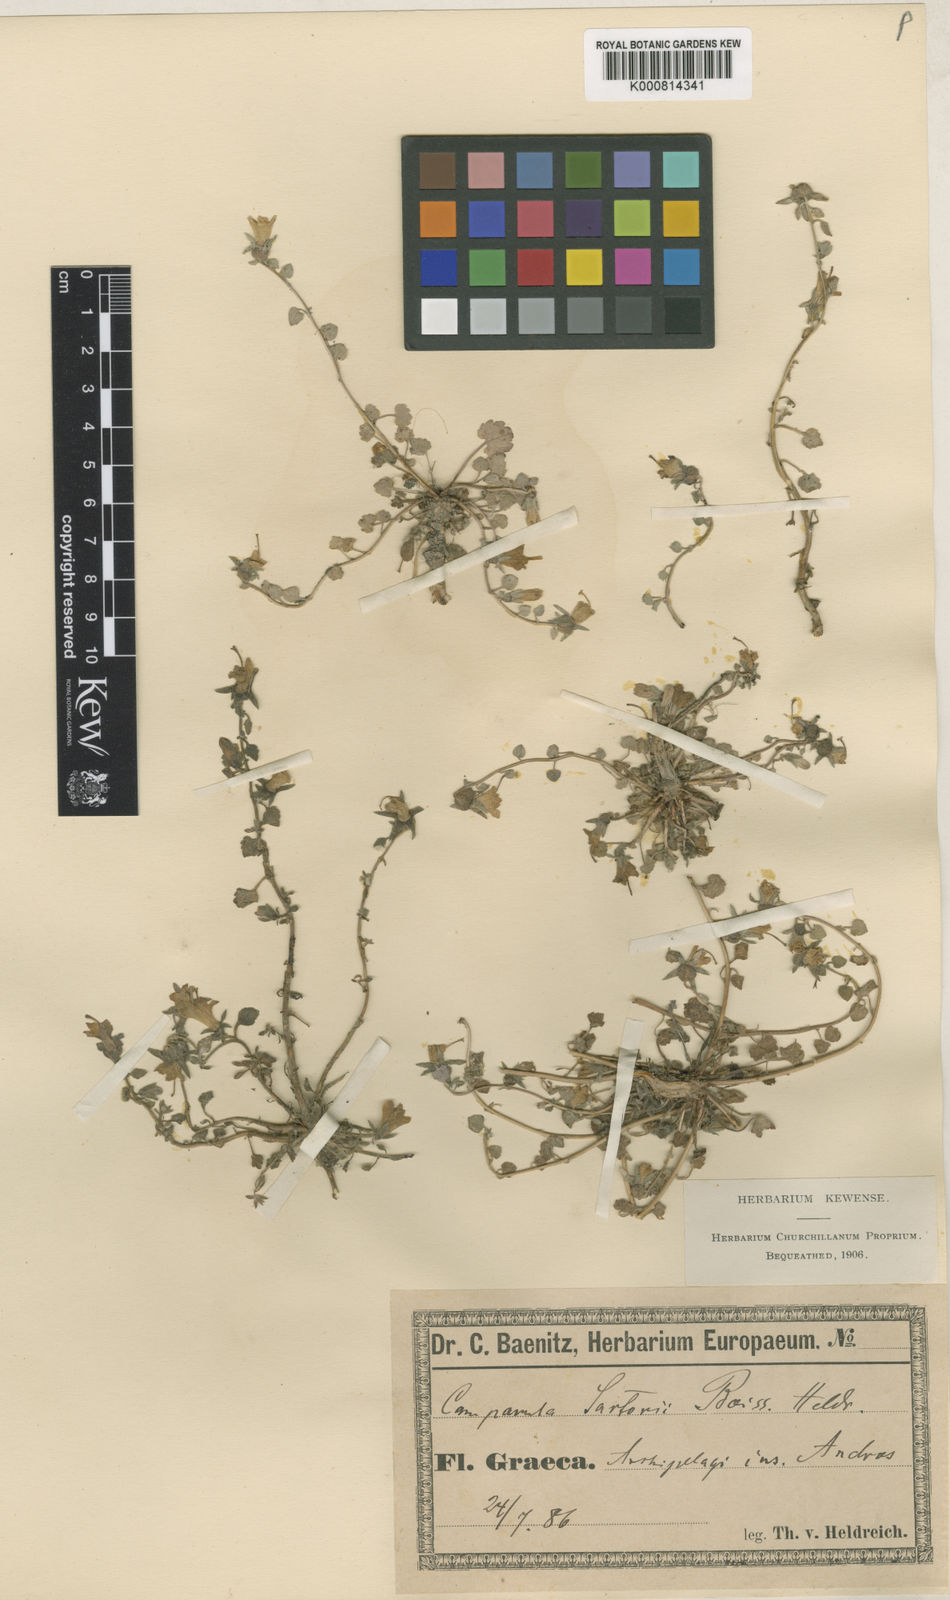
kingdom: Plantae
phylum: Tracheophyta
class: Magnoliopsida
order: Asterales
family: Campanulaceae
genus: Campanula
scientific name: Campanula sartorii
